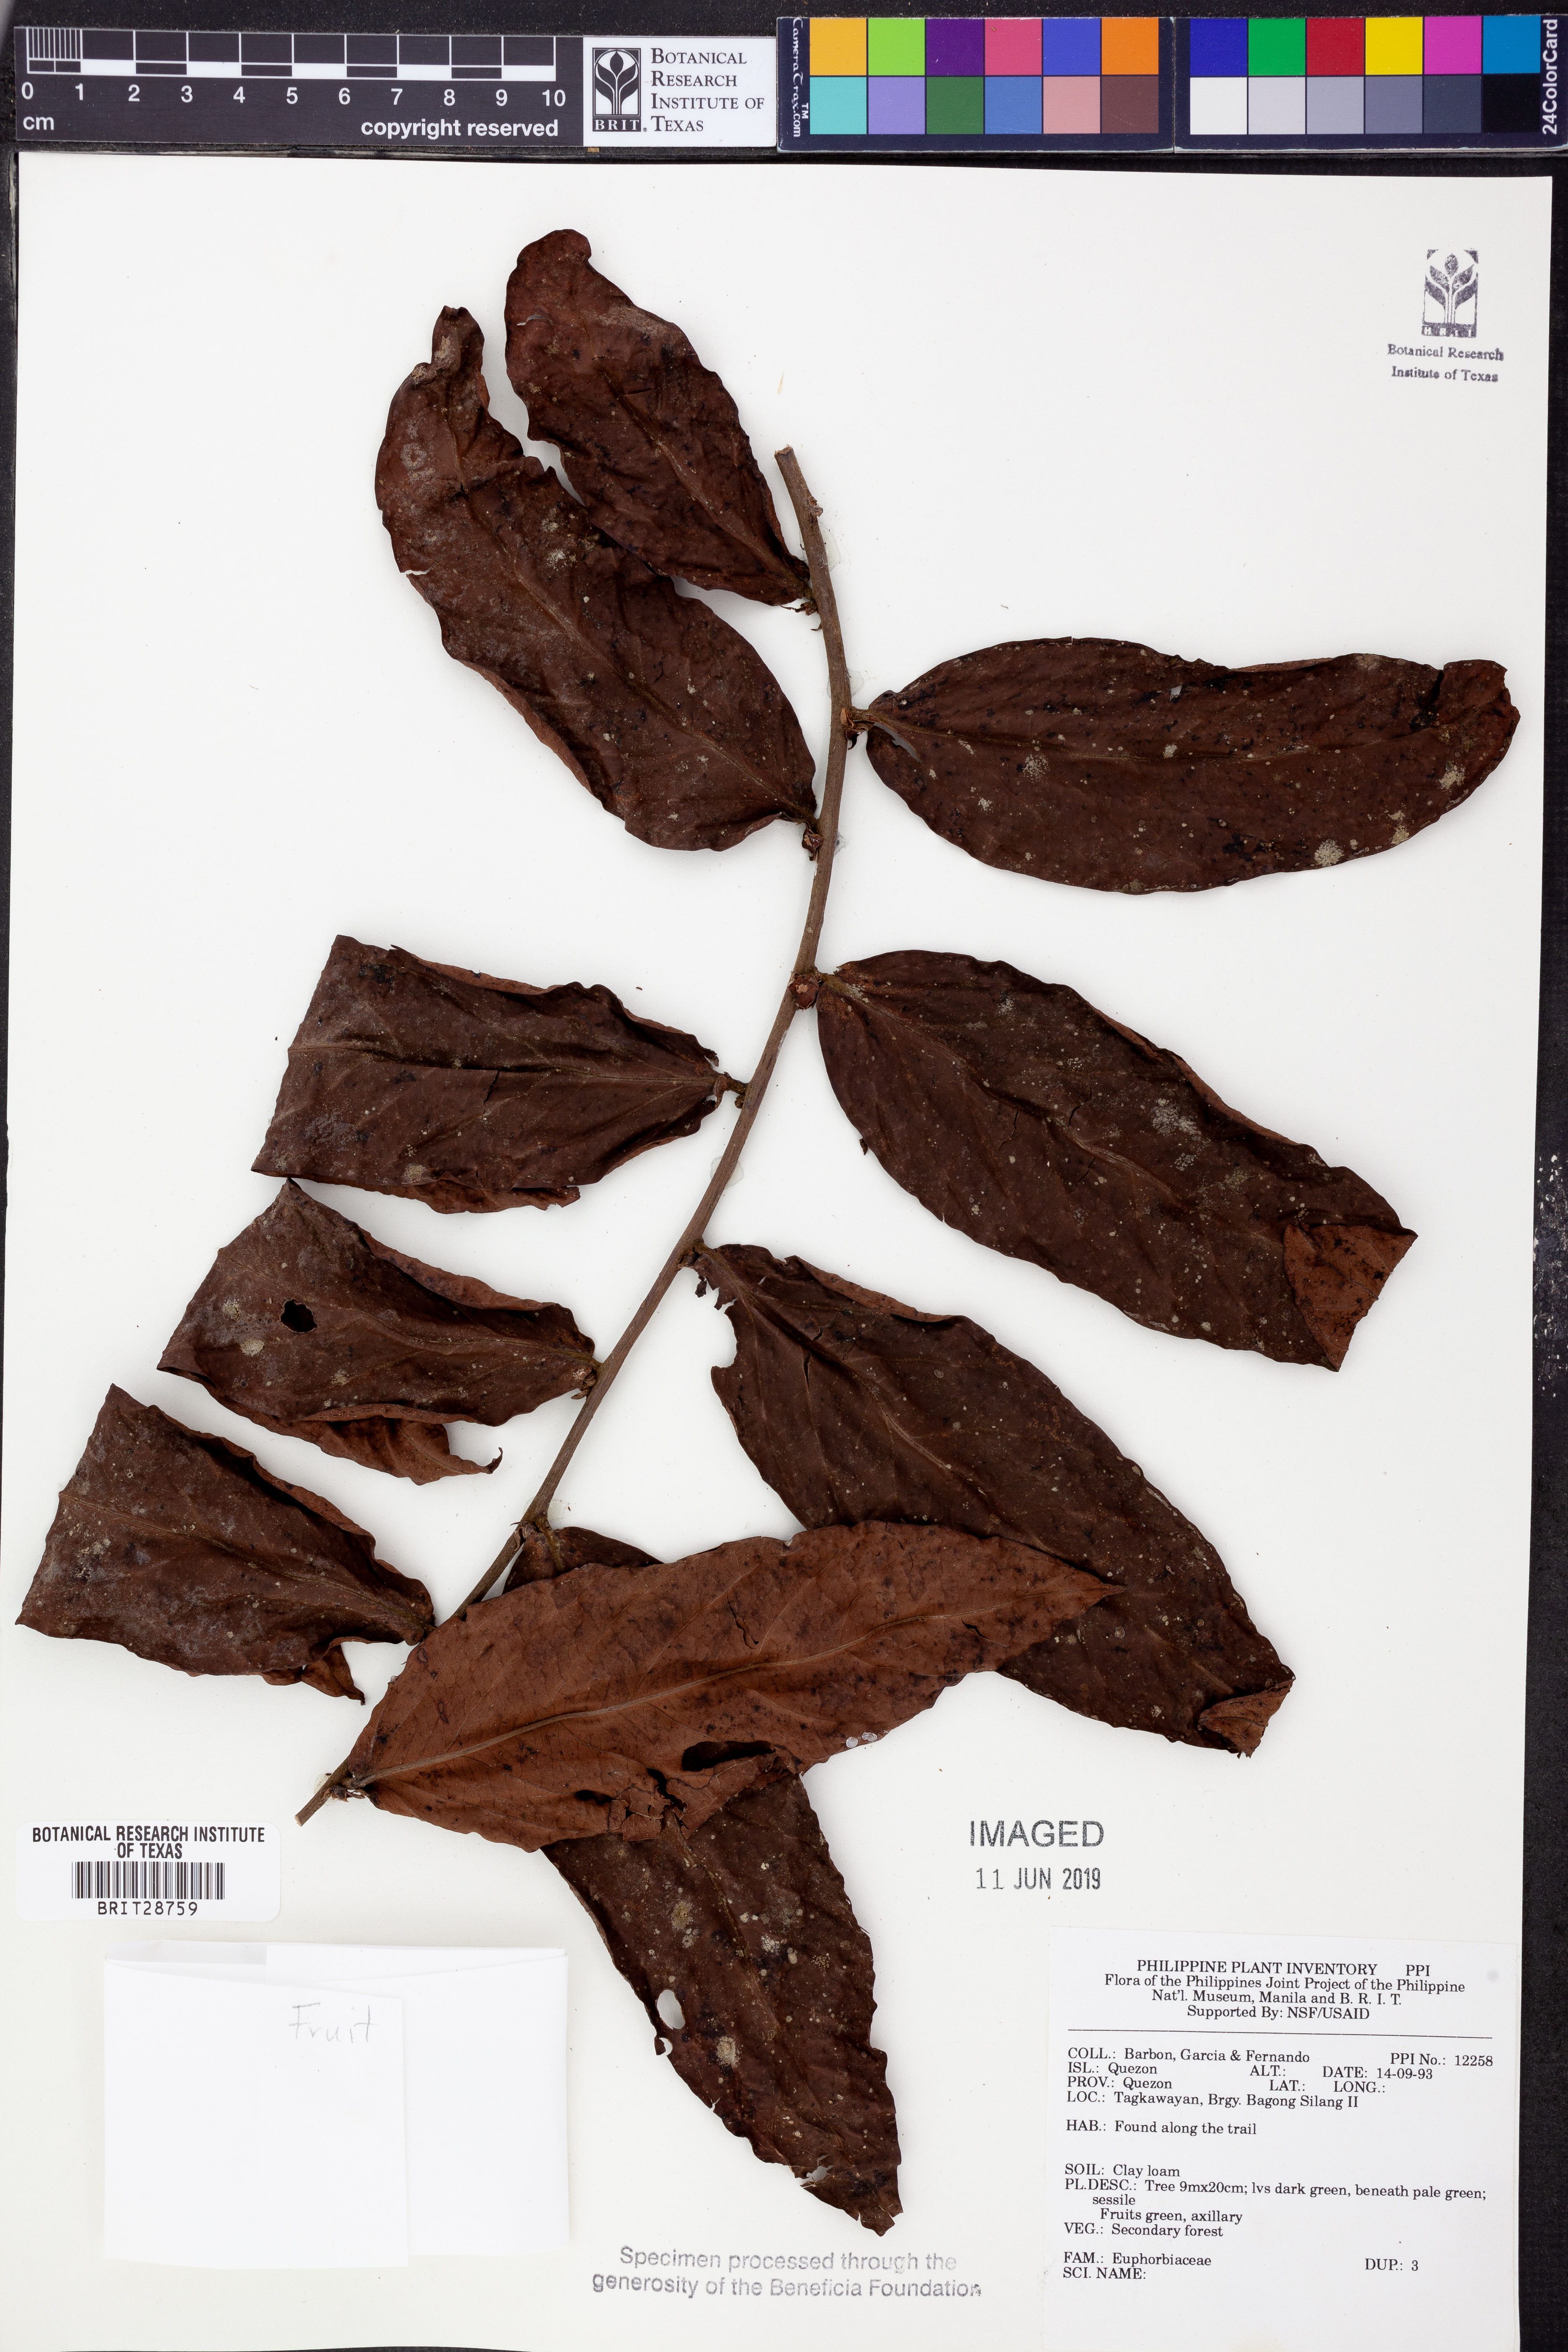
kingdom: Plantae
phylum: Tracheophyta
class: Magnoliopsida
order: Malpighiales
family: Euphorbiaceae
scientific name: Euphorbiaceae
